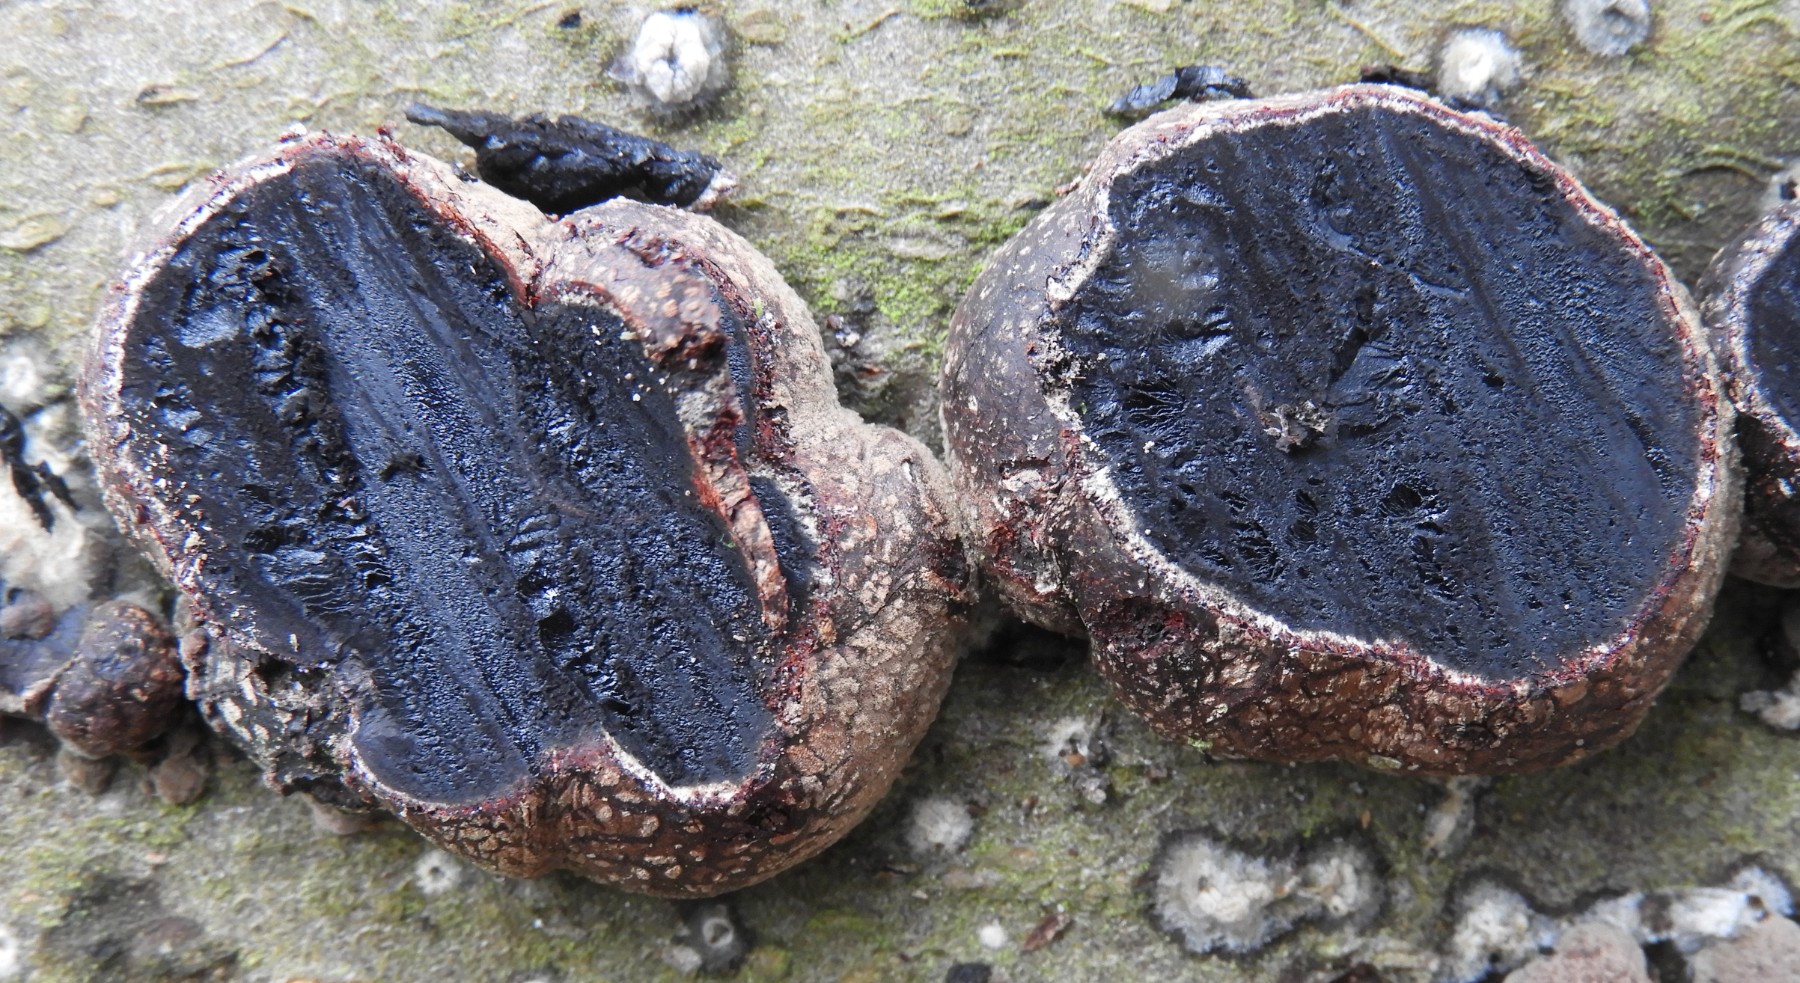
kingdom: Fungi
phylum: Ascomycota
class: Sordariomycetes
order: Xylariales
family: Hypoxylaceae
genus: Hypoxylon
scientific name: Hypoxylon fragiforme
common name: kuljordbær
